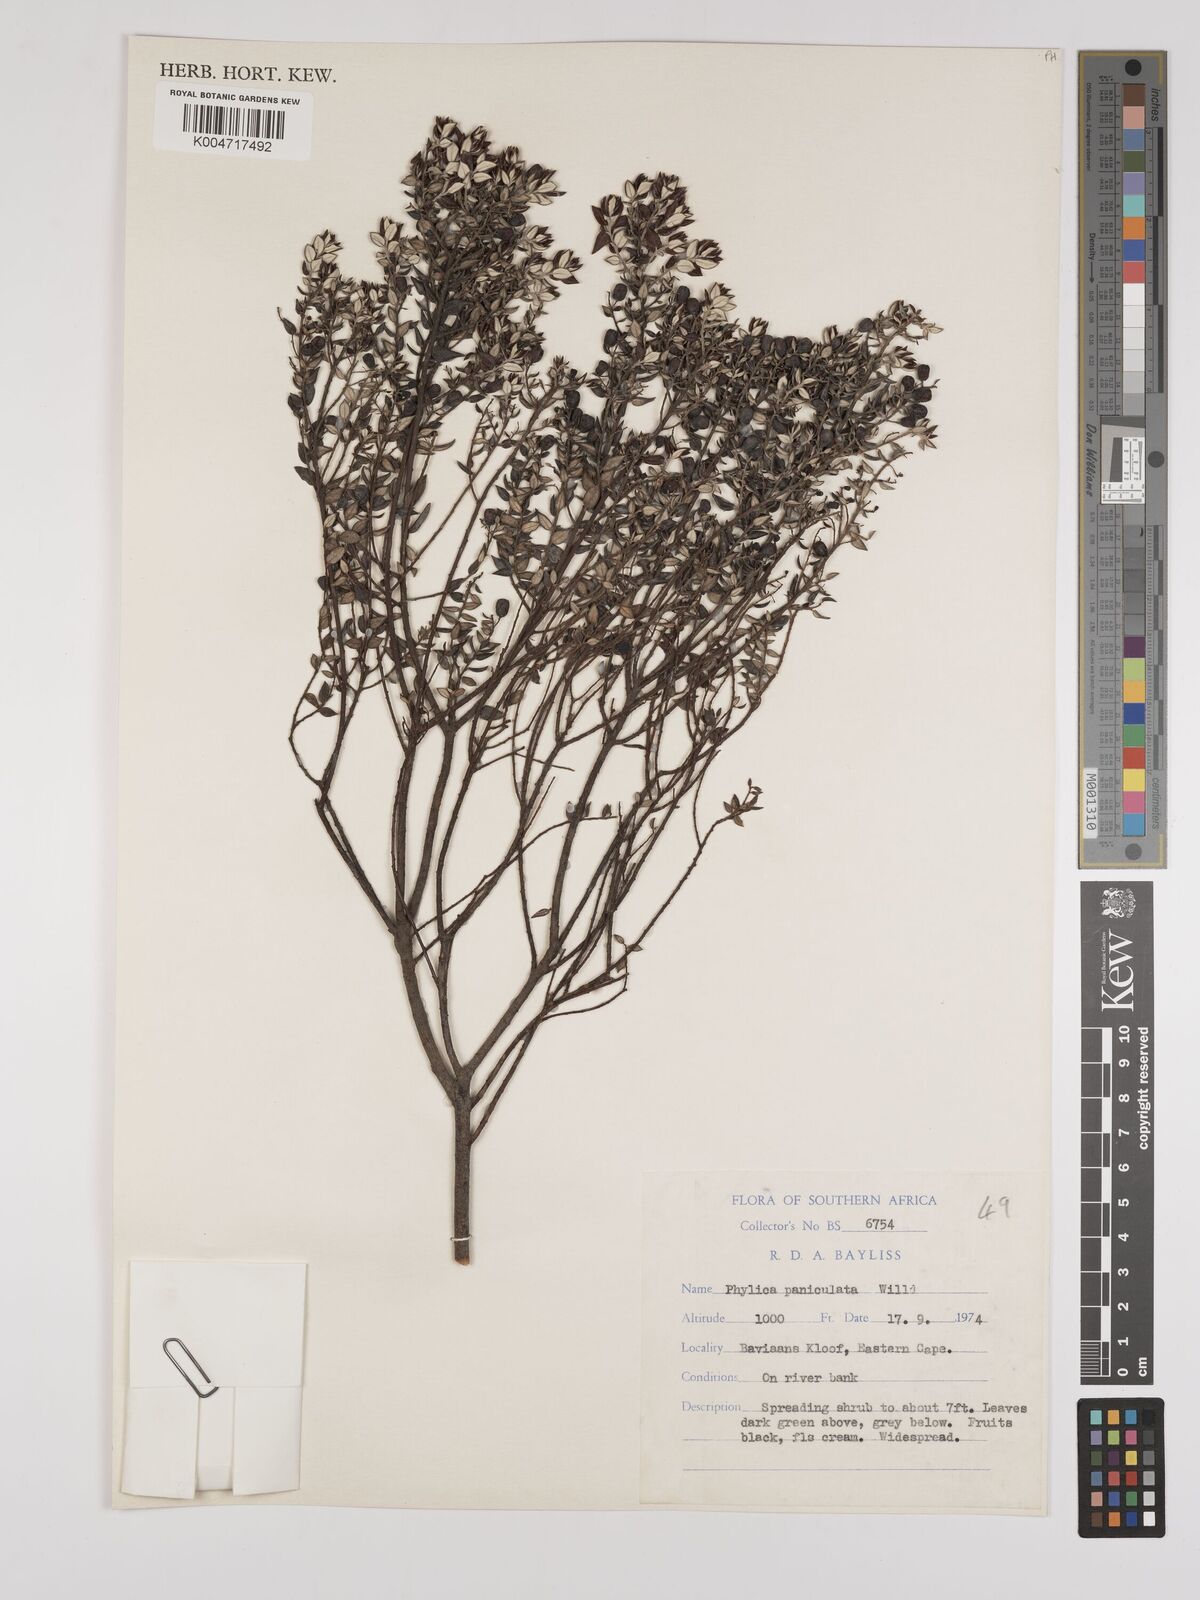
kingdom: Plantae
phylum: Tracheophyta
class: Magnoliopsida
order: Rosales
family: Rhamnaceae
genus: Phylica
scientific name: Phylica paniculata
